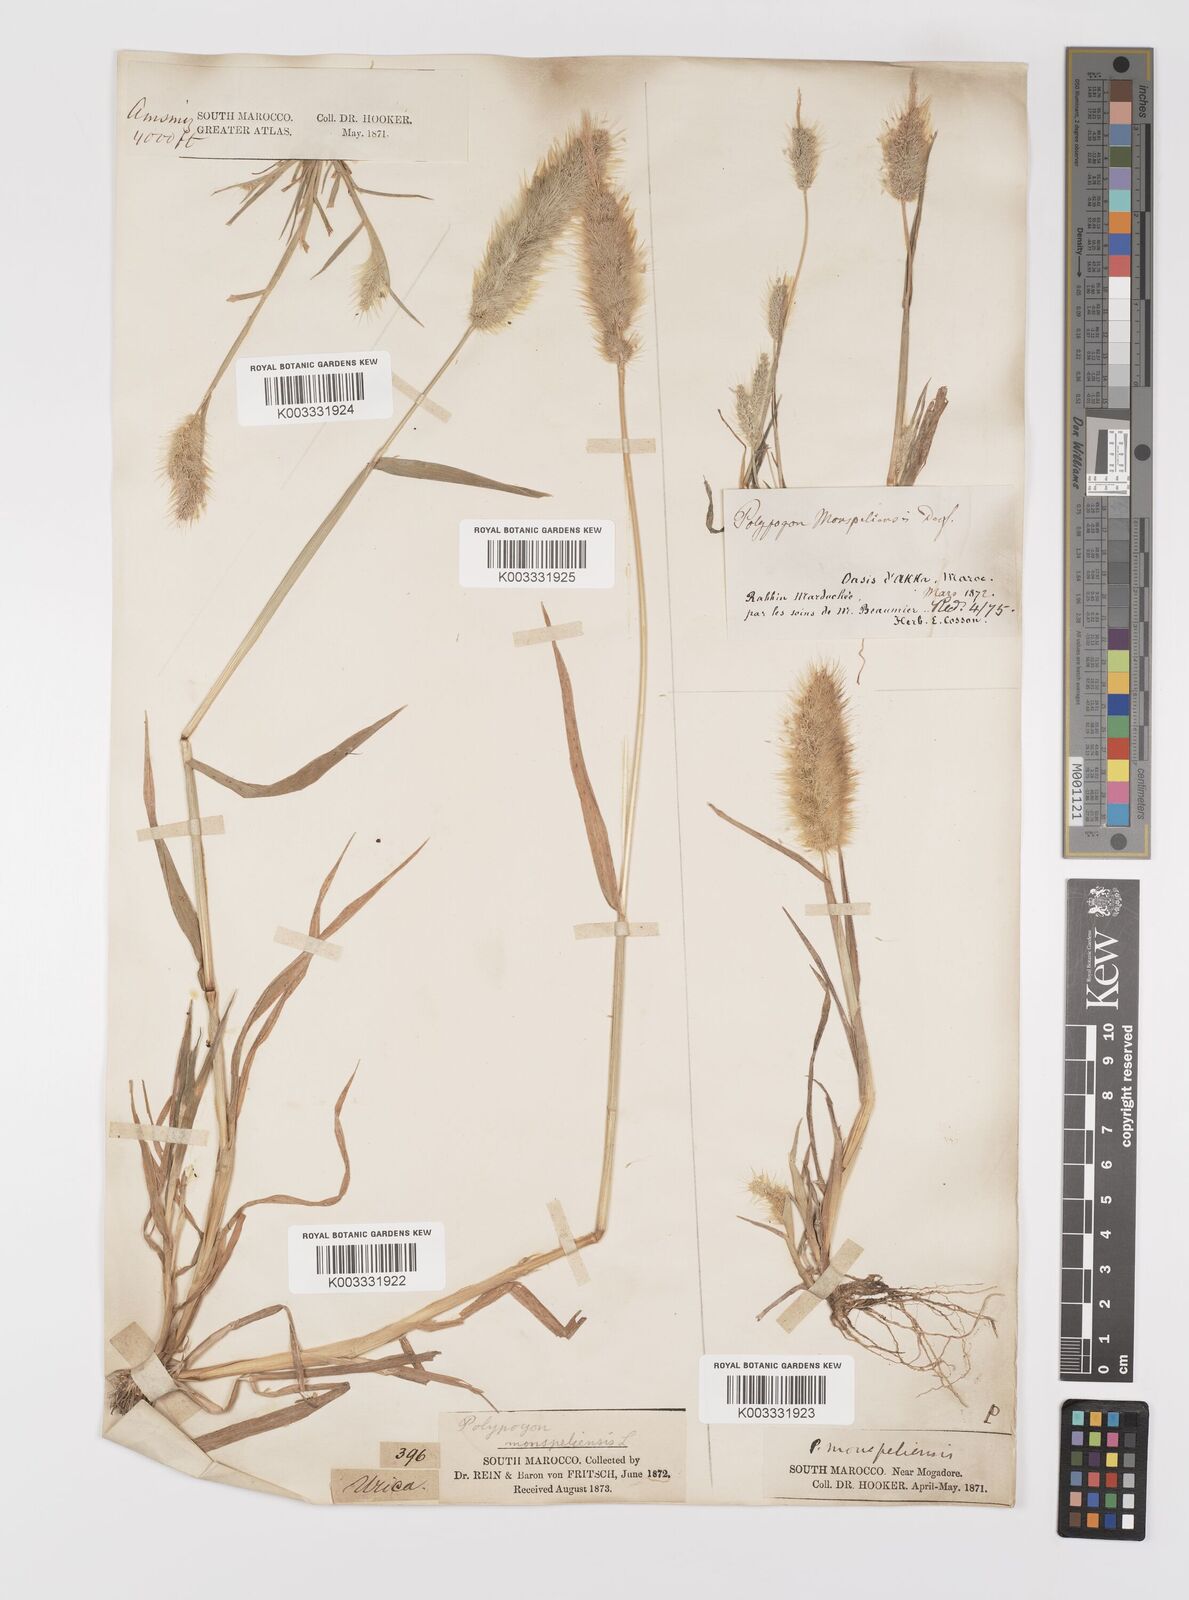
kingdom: Plantae
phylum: Tracheophyta
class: Liliopsida
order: Poales
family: Poaceae
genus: Polypogon
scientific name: Polypogon monspeliensis
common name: Annual rabbitsfoot grass
